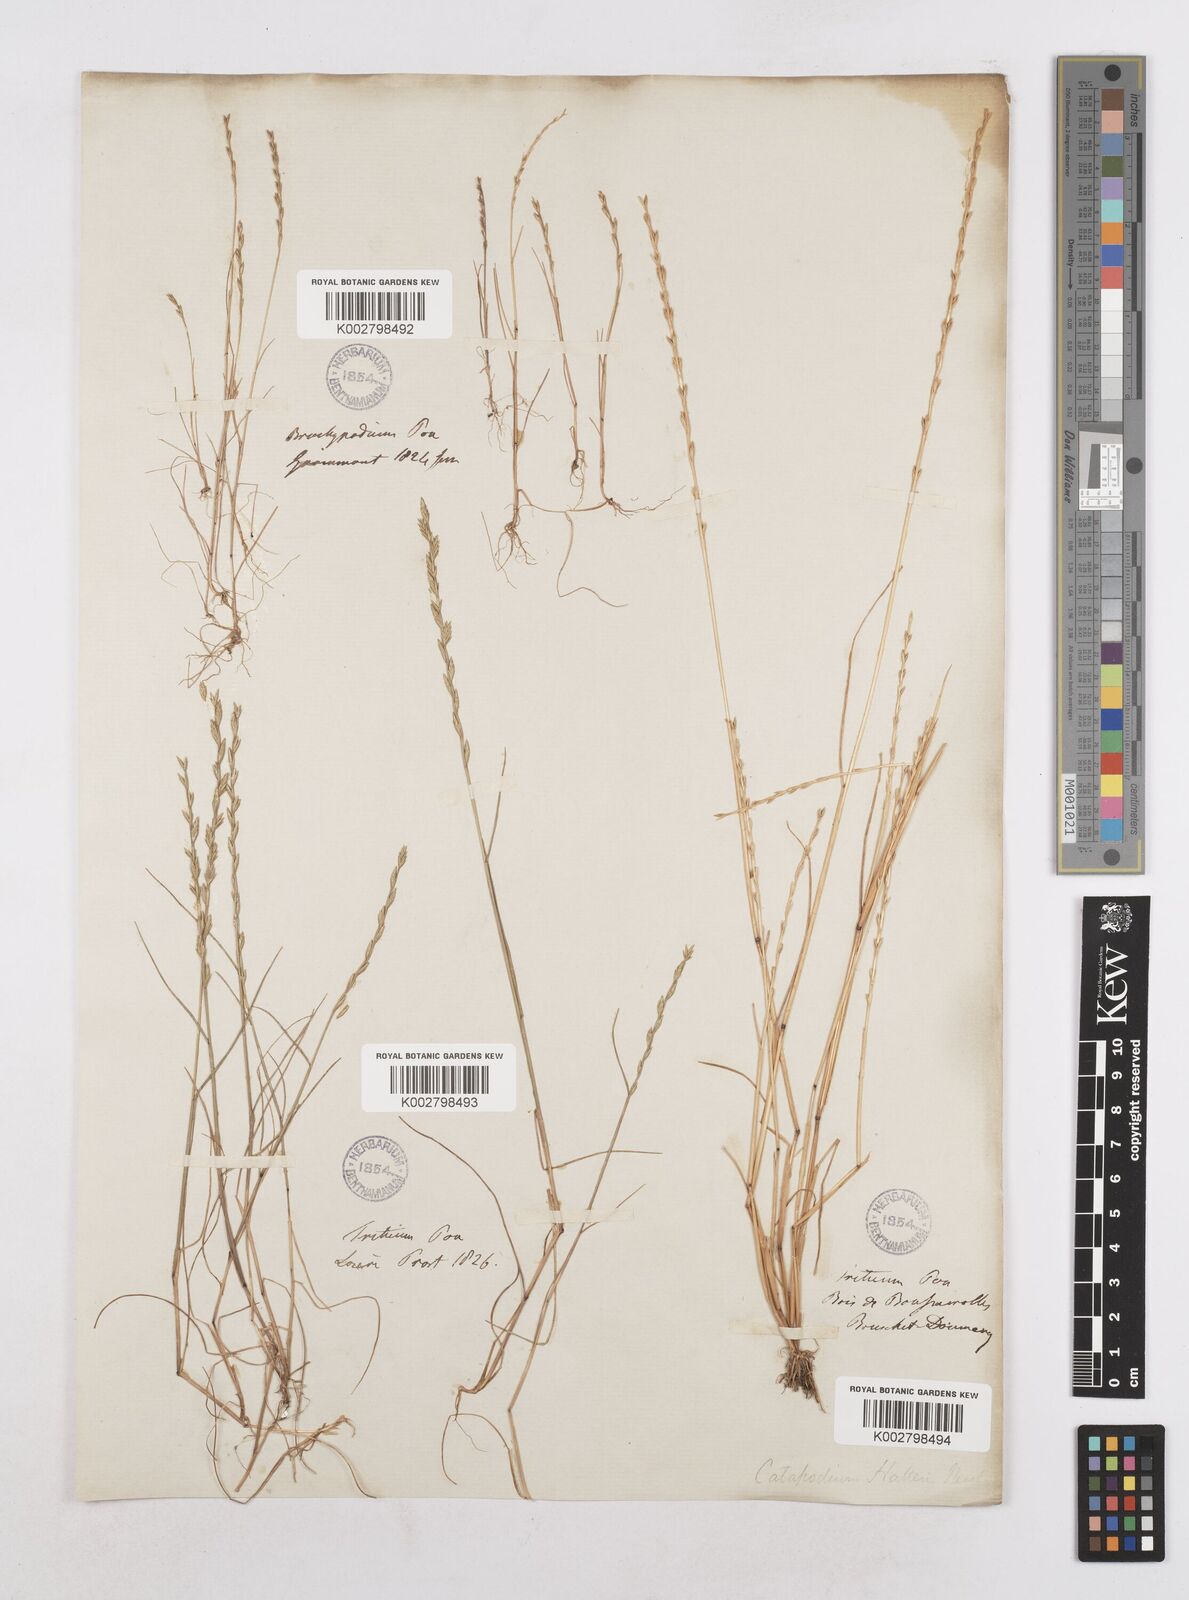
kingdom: Plantae
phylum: Tracheophyta
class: Liliopsida
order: Poales
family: Poaceae
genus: Festuca
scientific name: Festuca lachenalii
